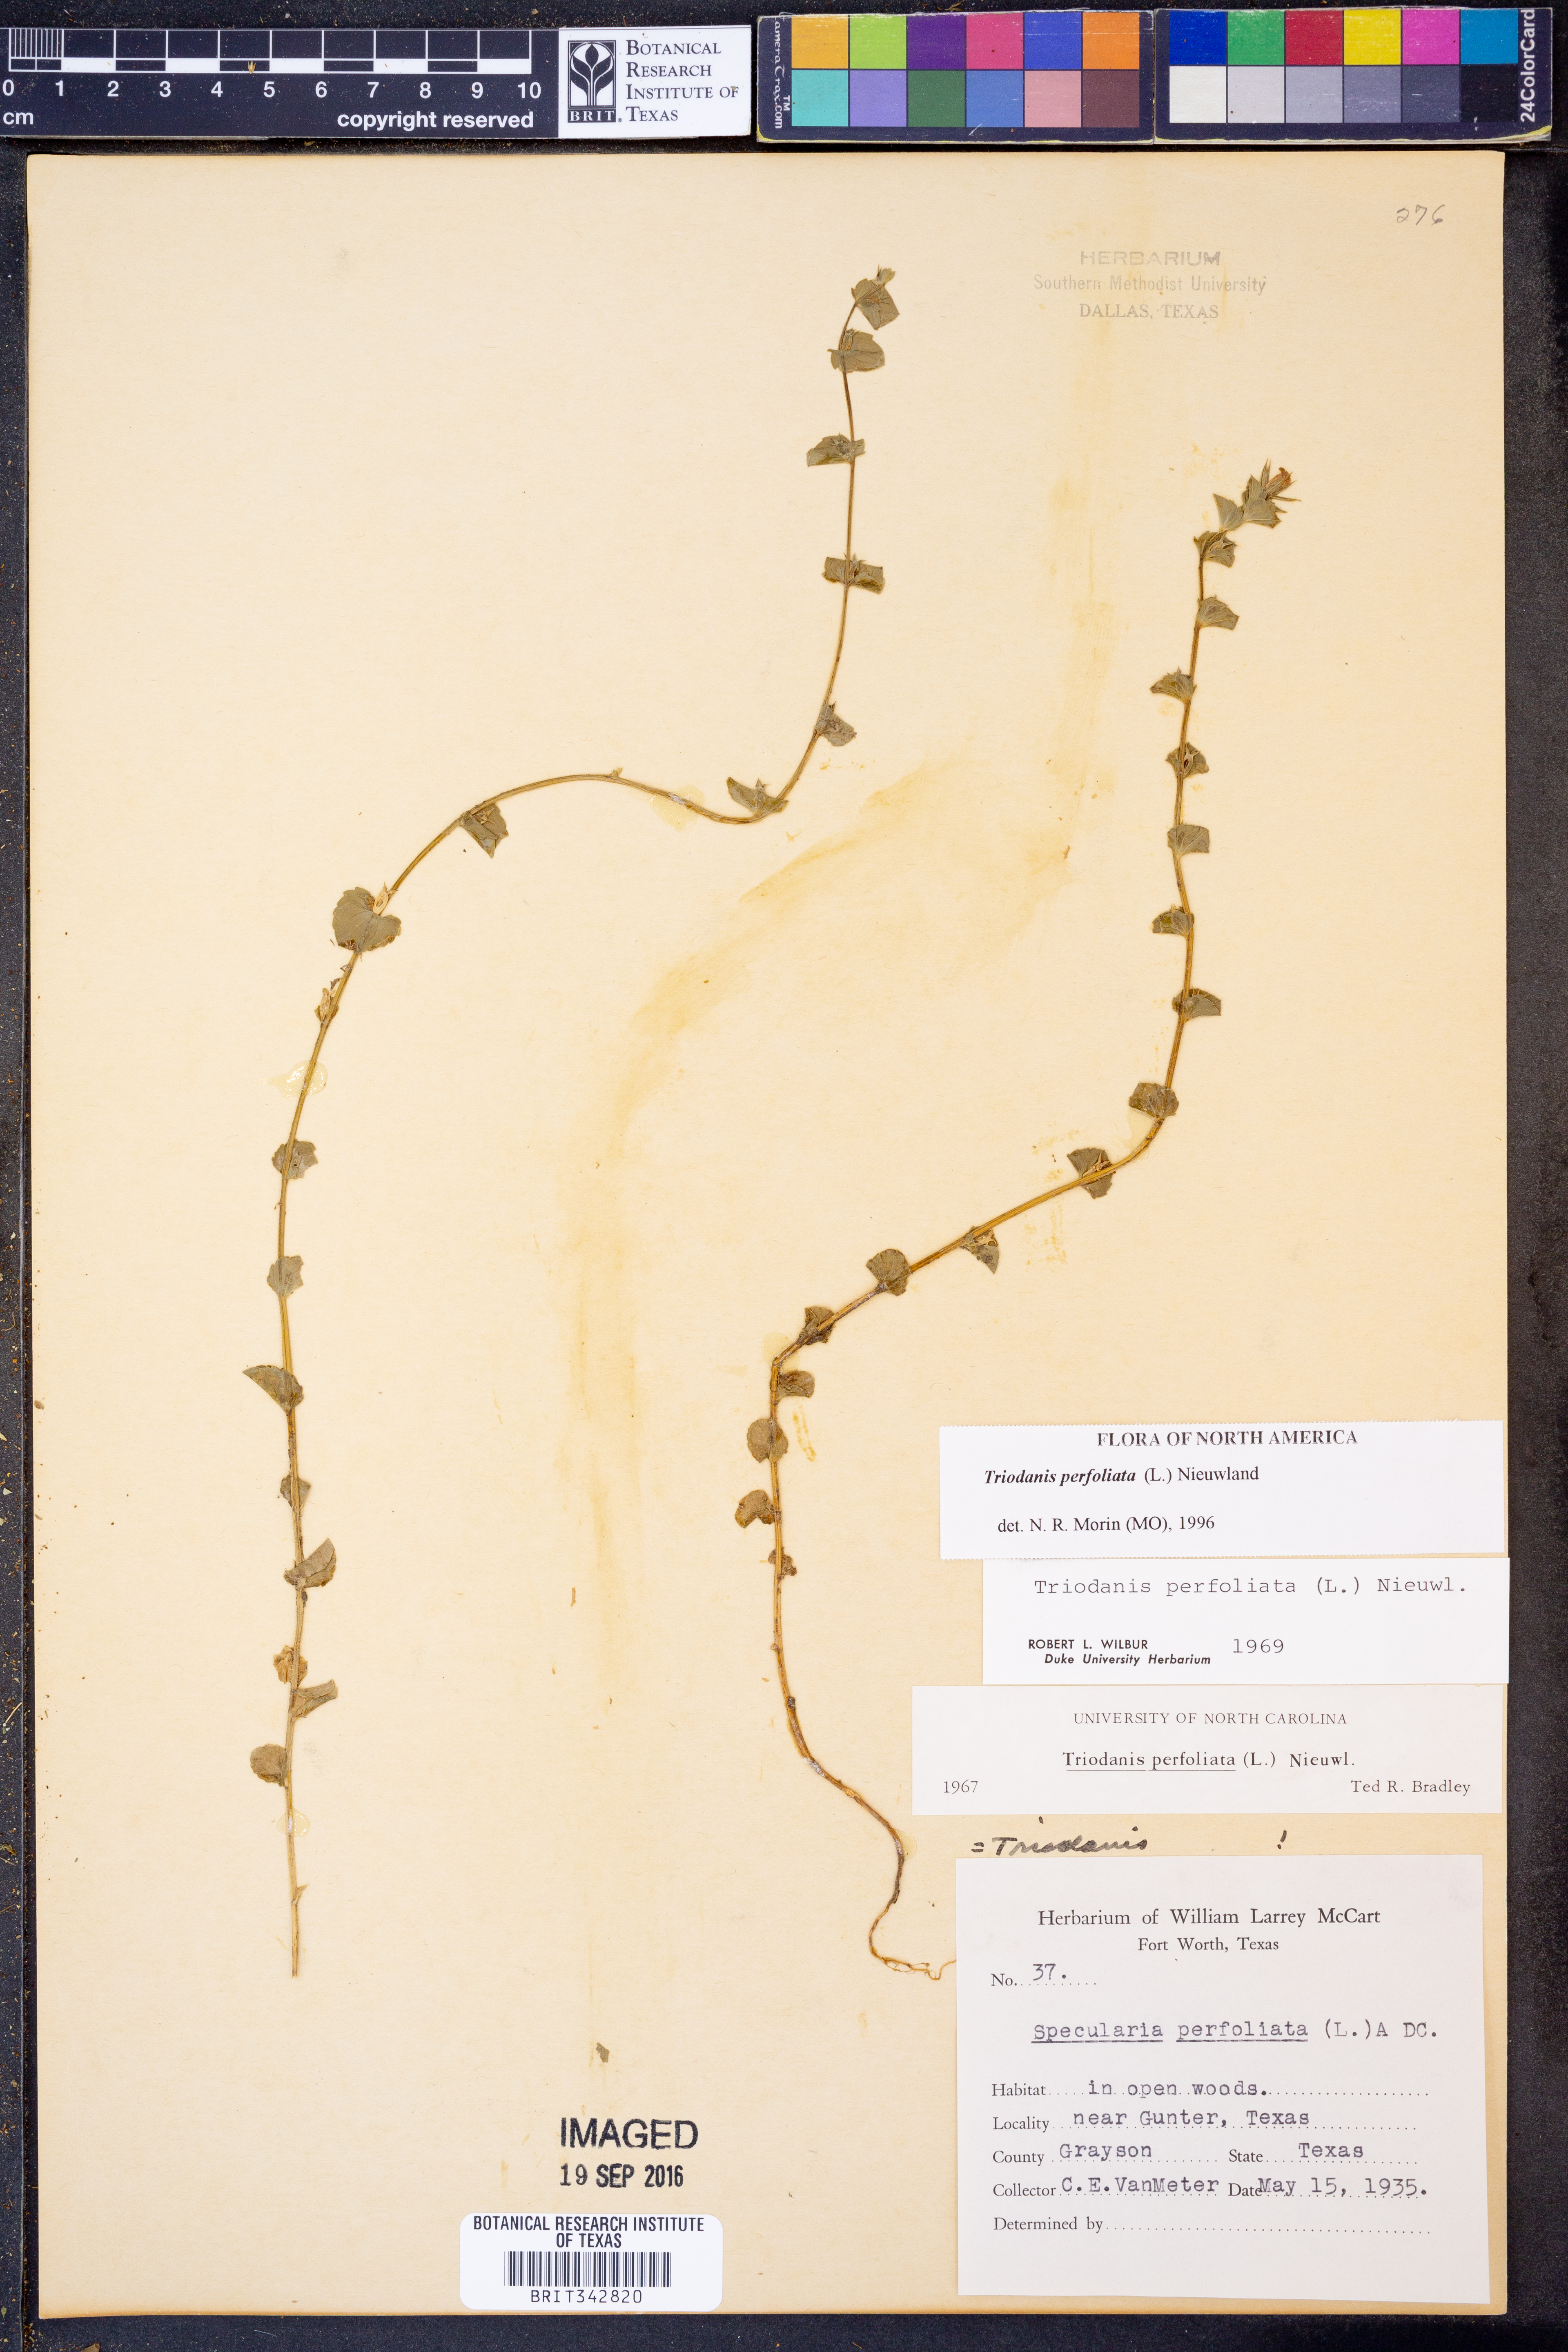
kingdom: Plantae
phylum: Tracheophyta
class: Magnoliopsida
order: Asterales
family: Campanulaceae
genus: Triodanis
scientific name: Triodanis perfoliata
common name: Clasping venus' looking-glass
